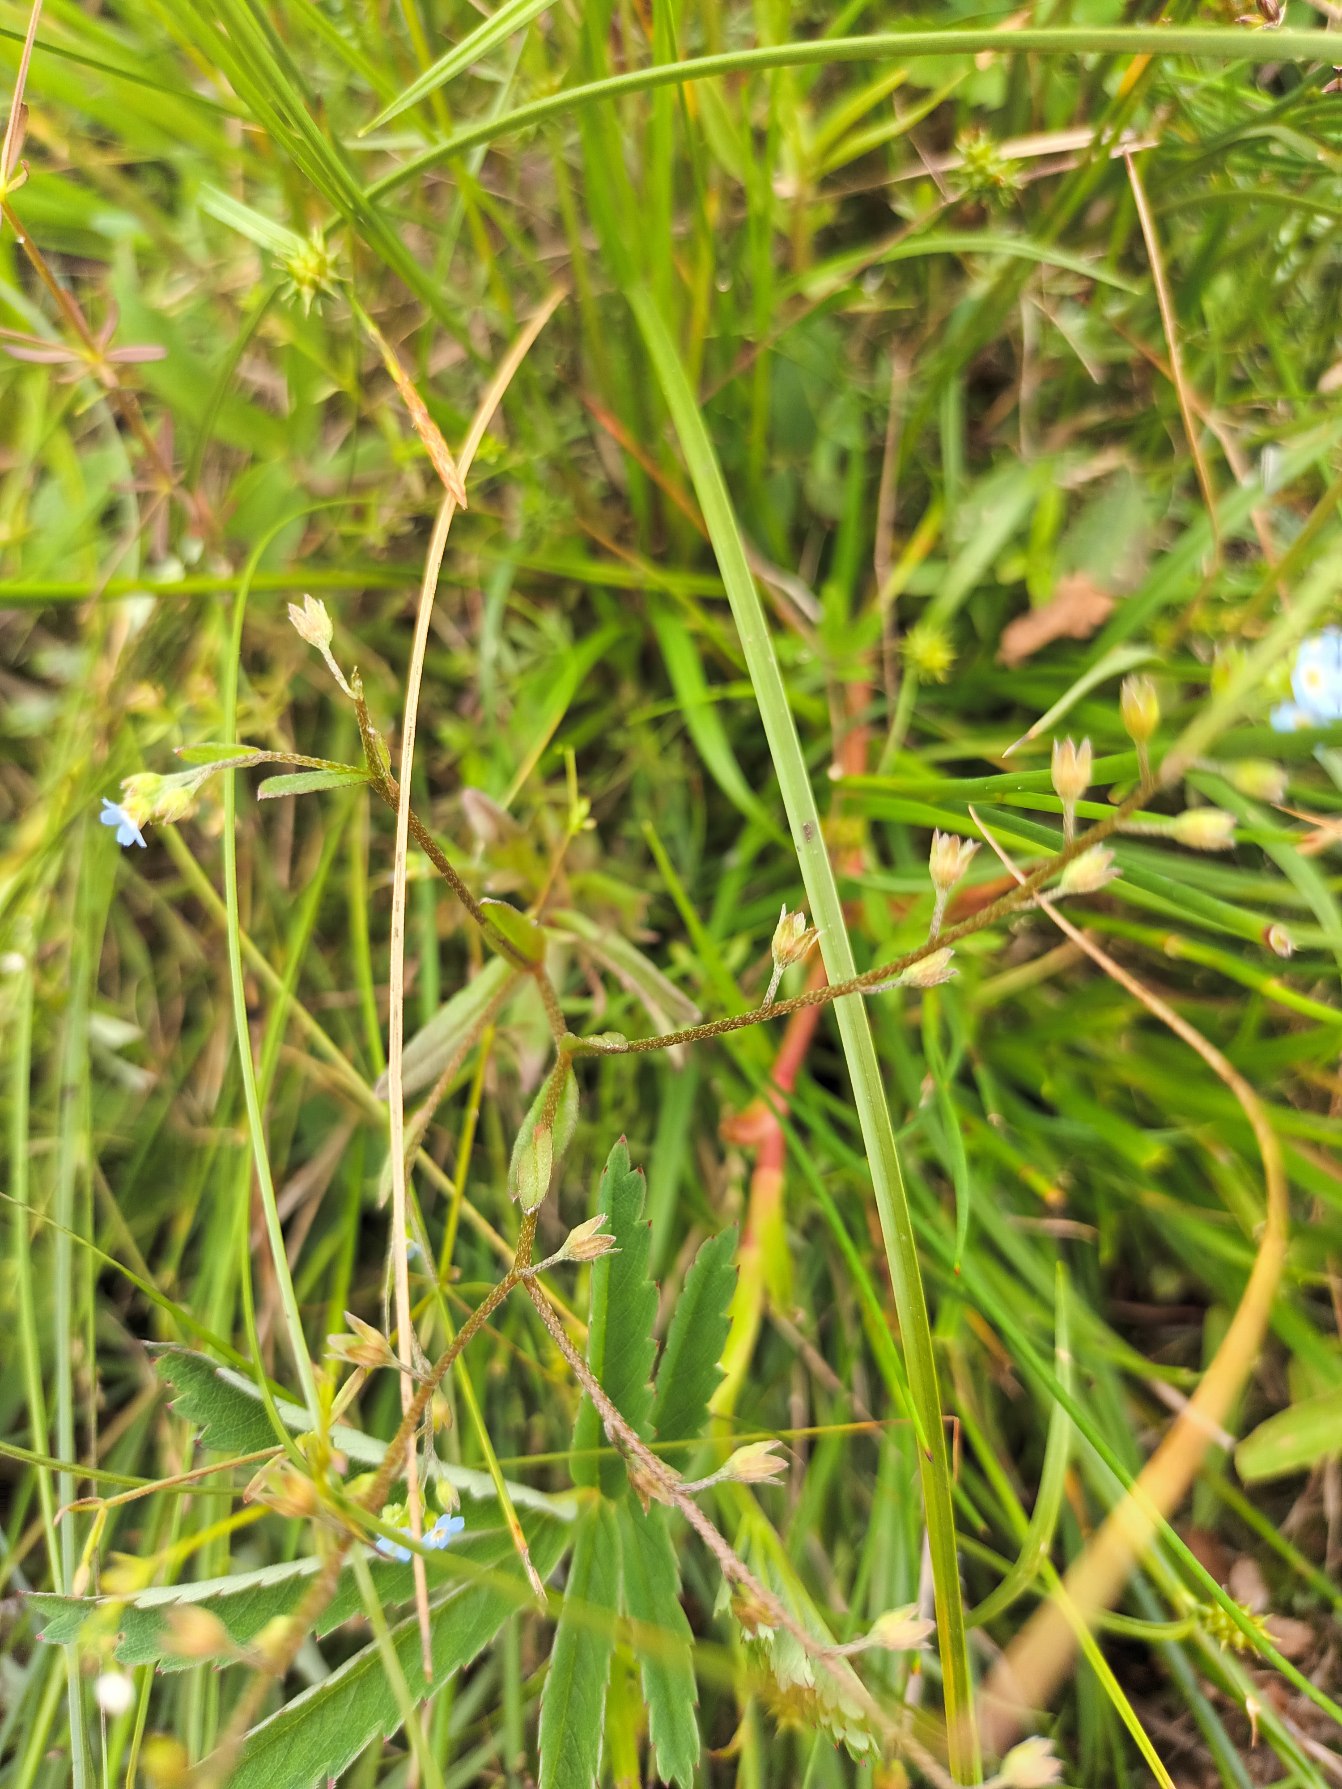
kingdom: Plantae
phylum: Tracheophyta
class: Magnoliopsida
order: Boraginales
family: Boraginaceae
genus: Myosotis
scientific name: Myosotis laxa
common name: Sump-forglemmigej
